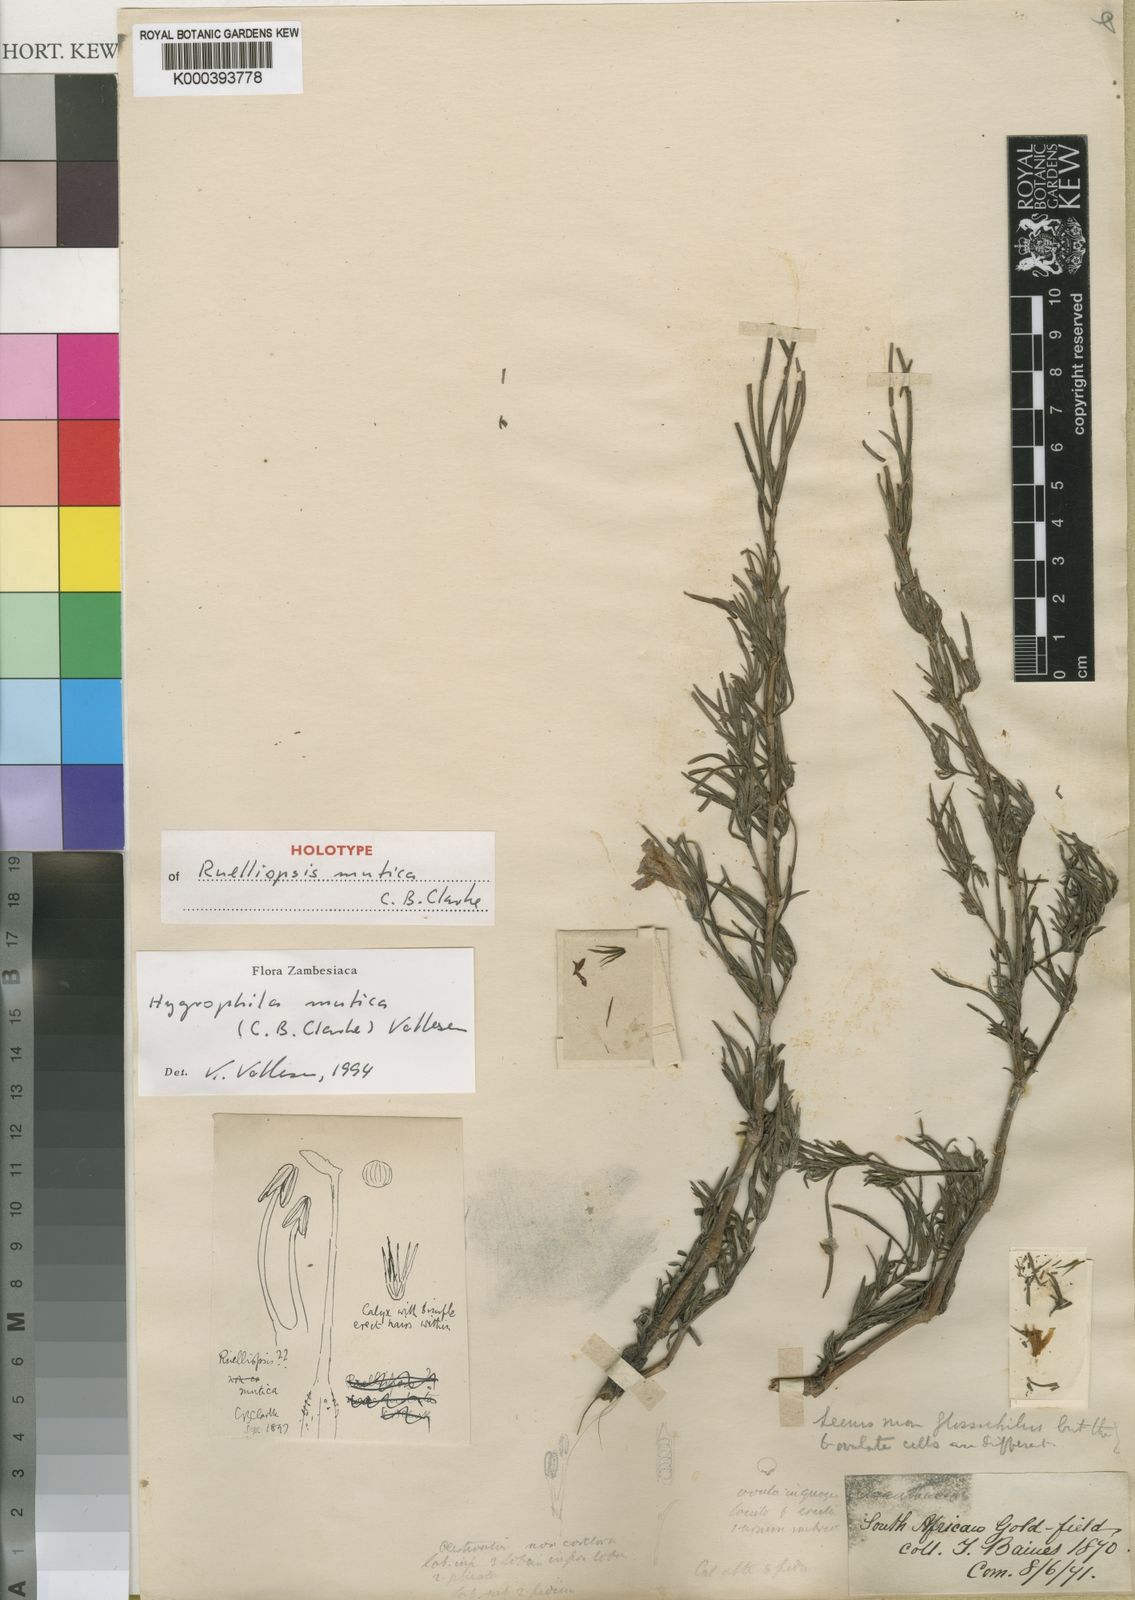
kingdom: Plantae
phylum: Tracheophyta
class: Magnoliopsida
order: Lamiales
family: Acanthaceae
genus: Hygrophila
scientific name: Hygrophila mutica
